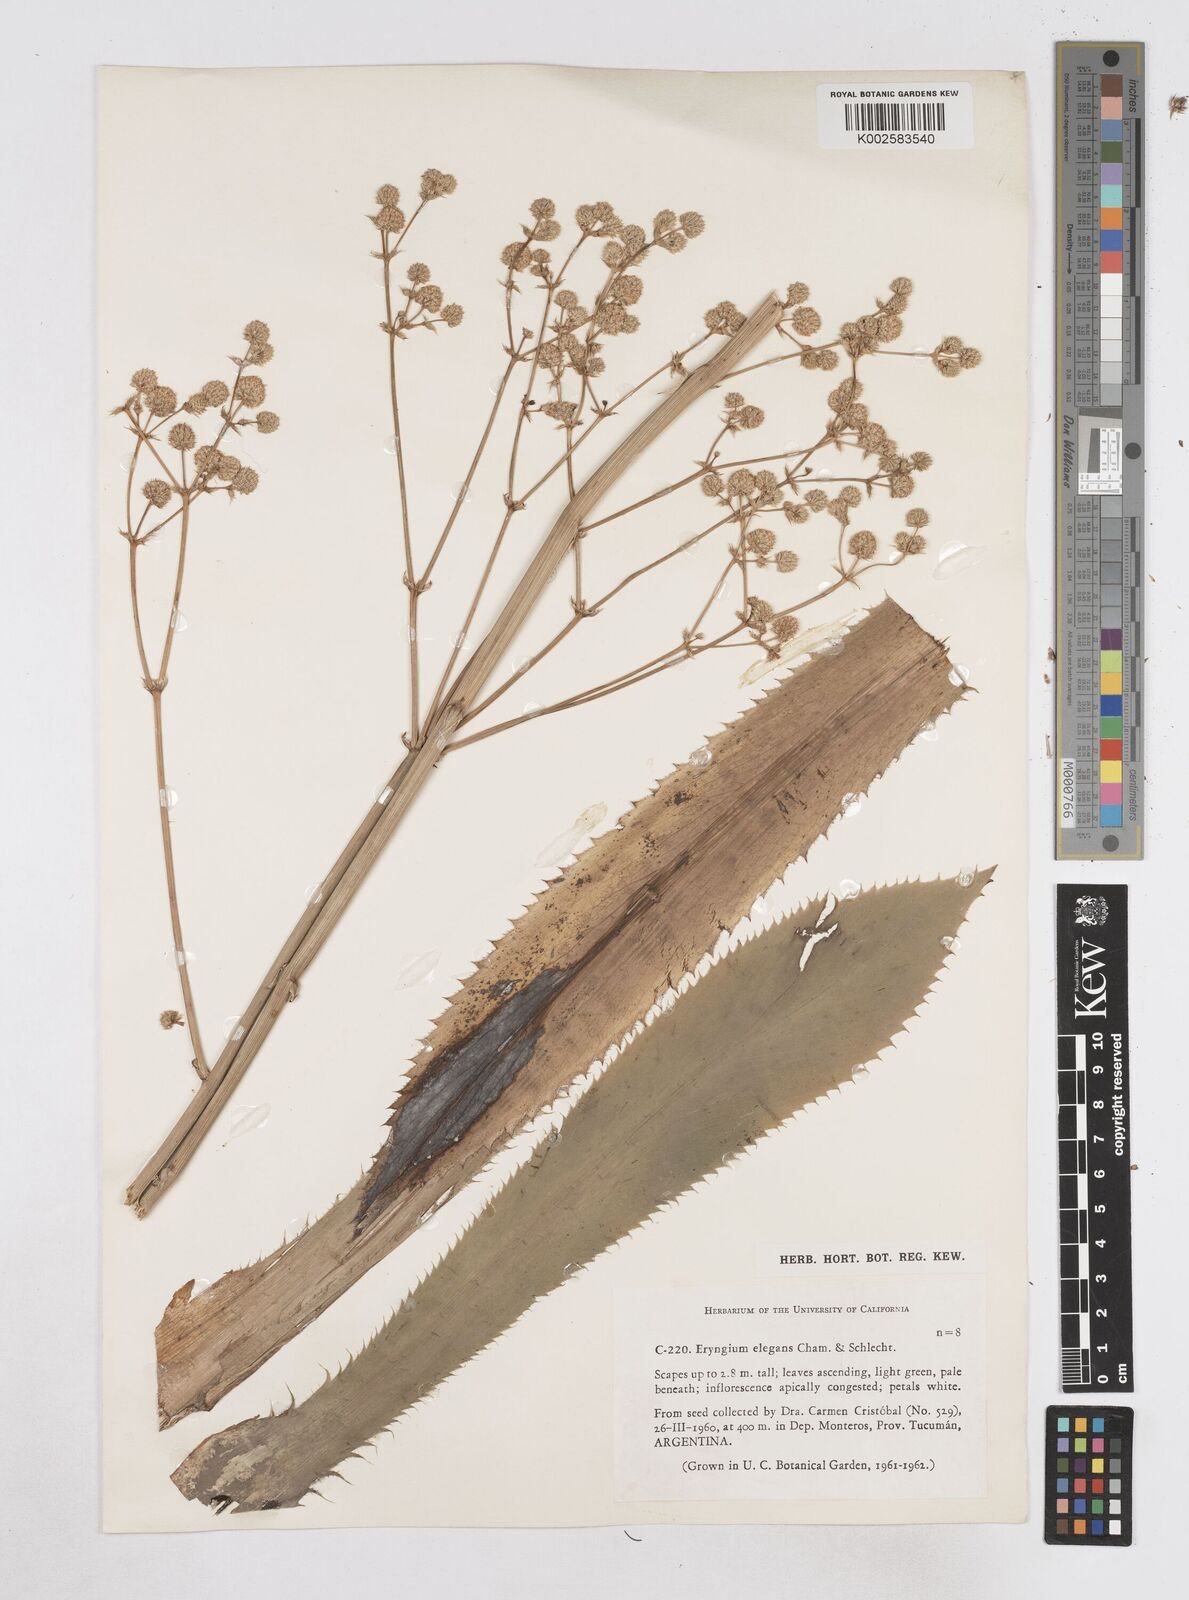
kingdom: Plantae
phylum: Tracheophyta
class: Magnoliopsida
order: Apiales
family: Apiaceae
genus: Eryngium
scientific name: Eryngium elegans
